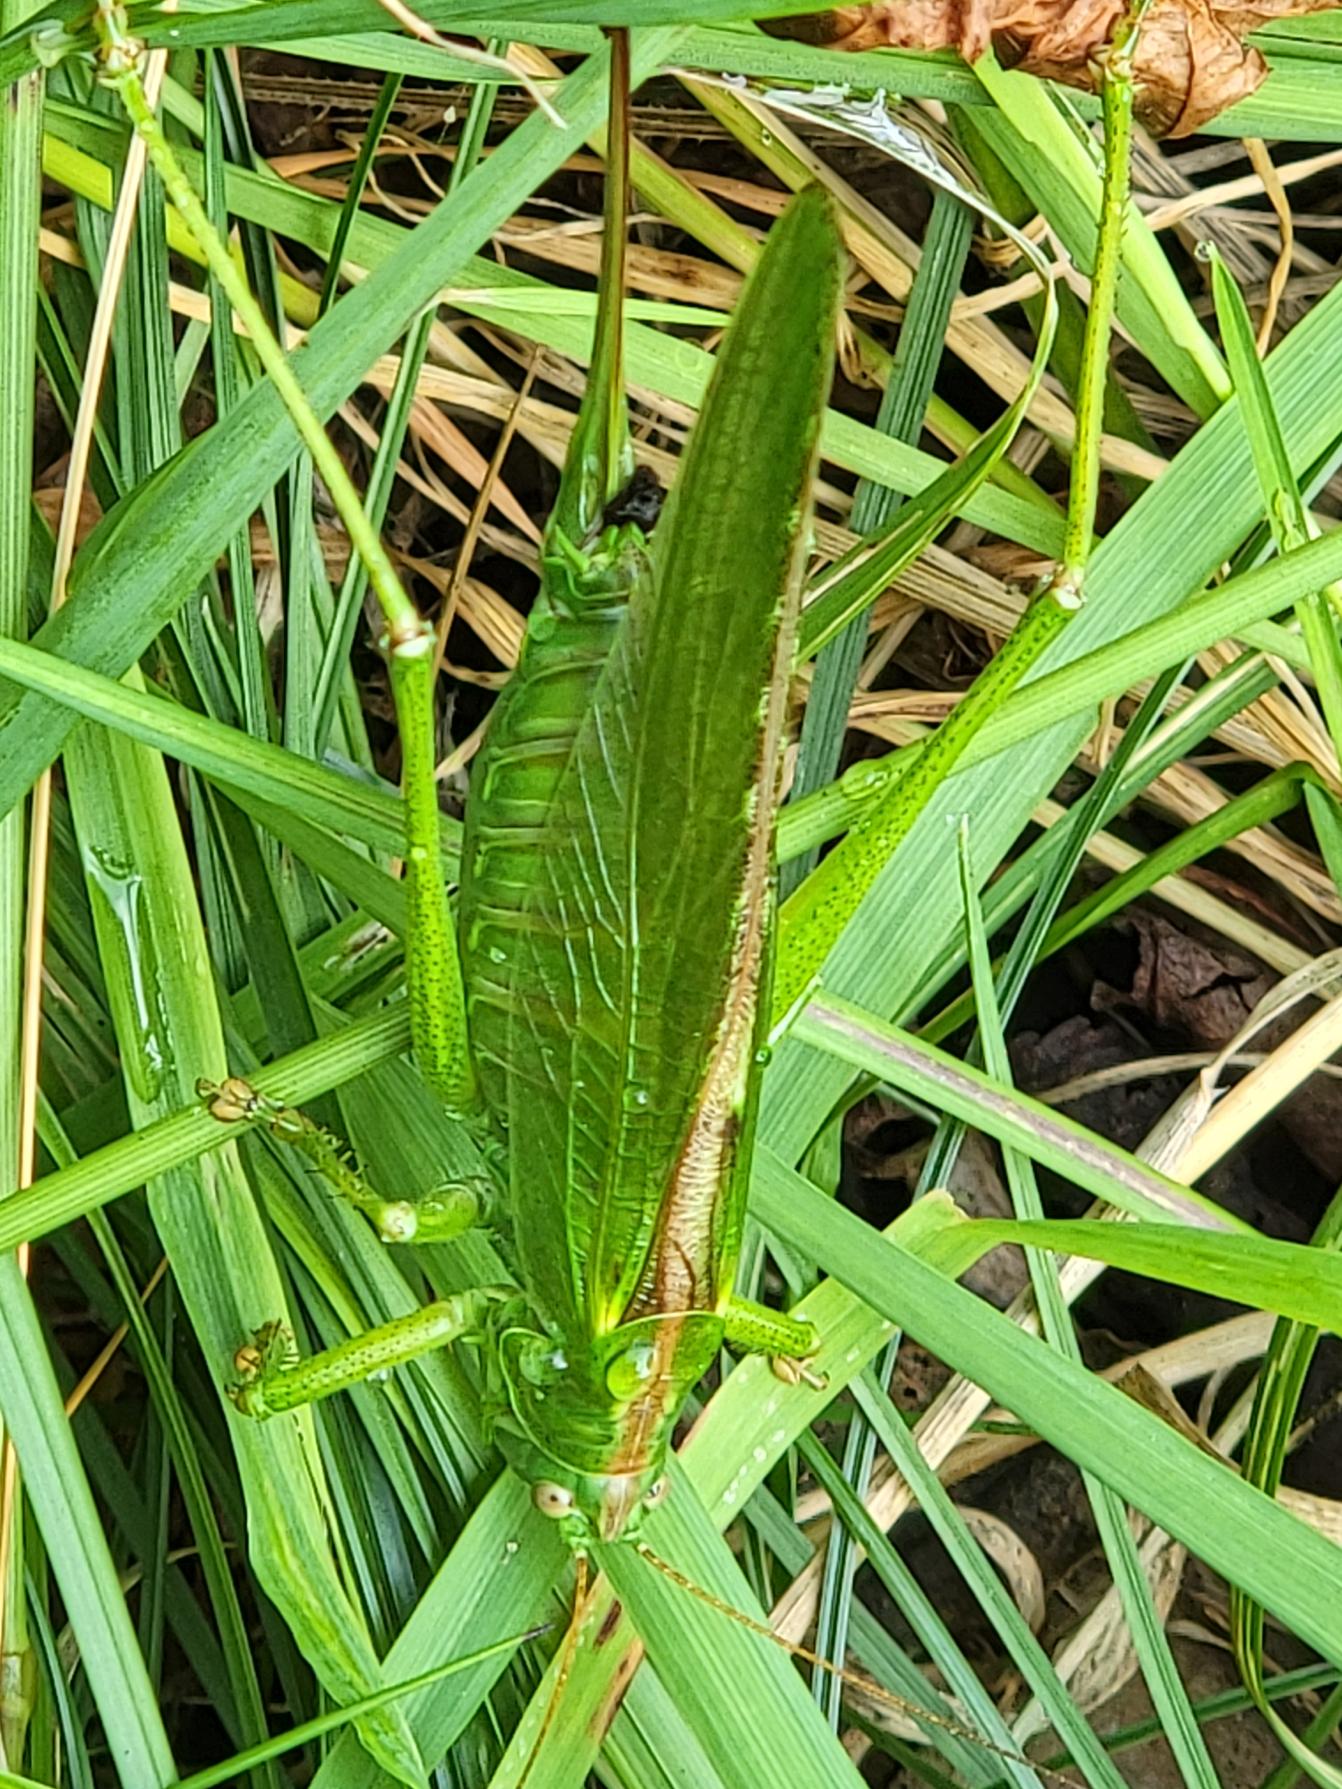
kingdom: Animalia
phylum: Arthropoda
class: Insecta
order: Orthoptera
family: Tettigoniidae
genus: Tettigonia
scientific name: Tettigonia viridissima
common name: Stor grøn løvgræshoppe
